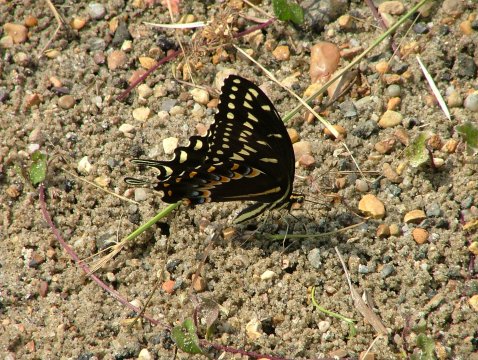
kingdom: Animalia
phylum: Arthropoda
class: Insecta
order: Lepidoptera
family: Papilionidae
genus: Pterourus
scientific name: Pterourus palamedes
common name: Palamedes Swallowtail
